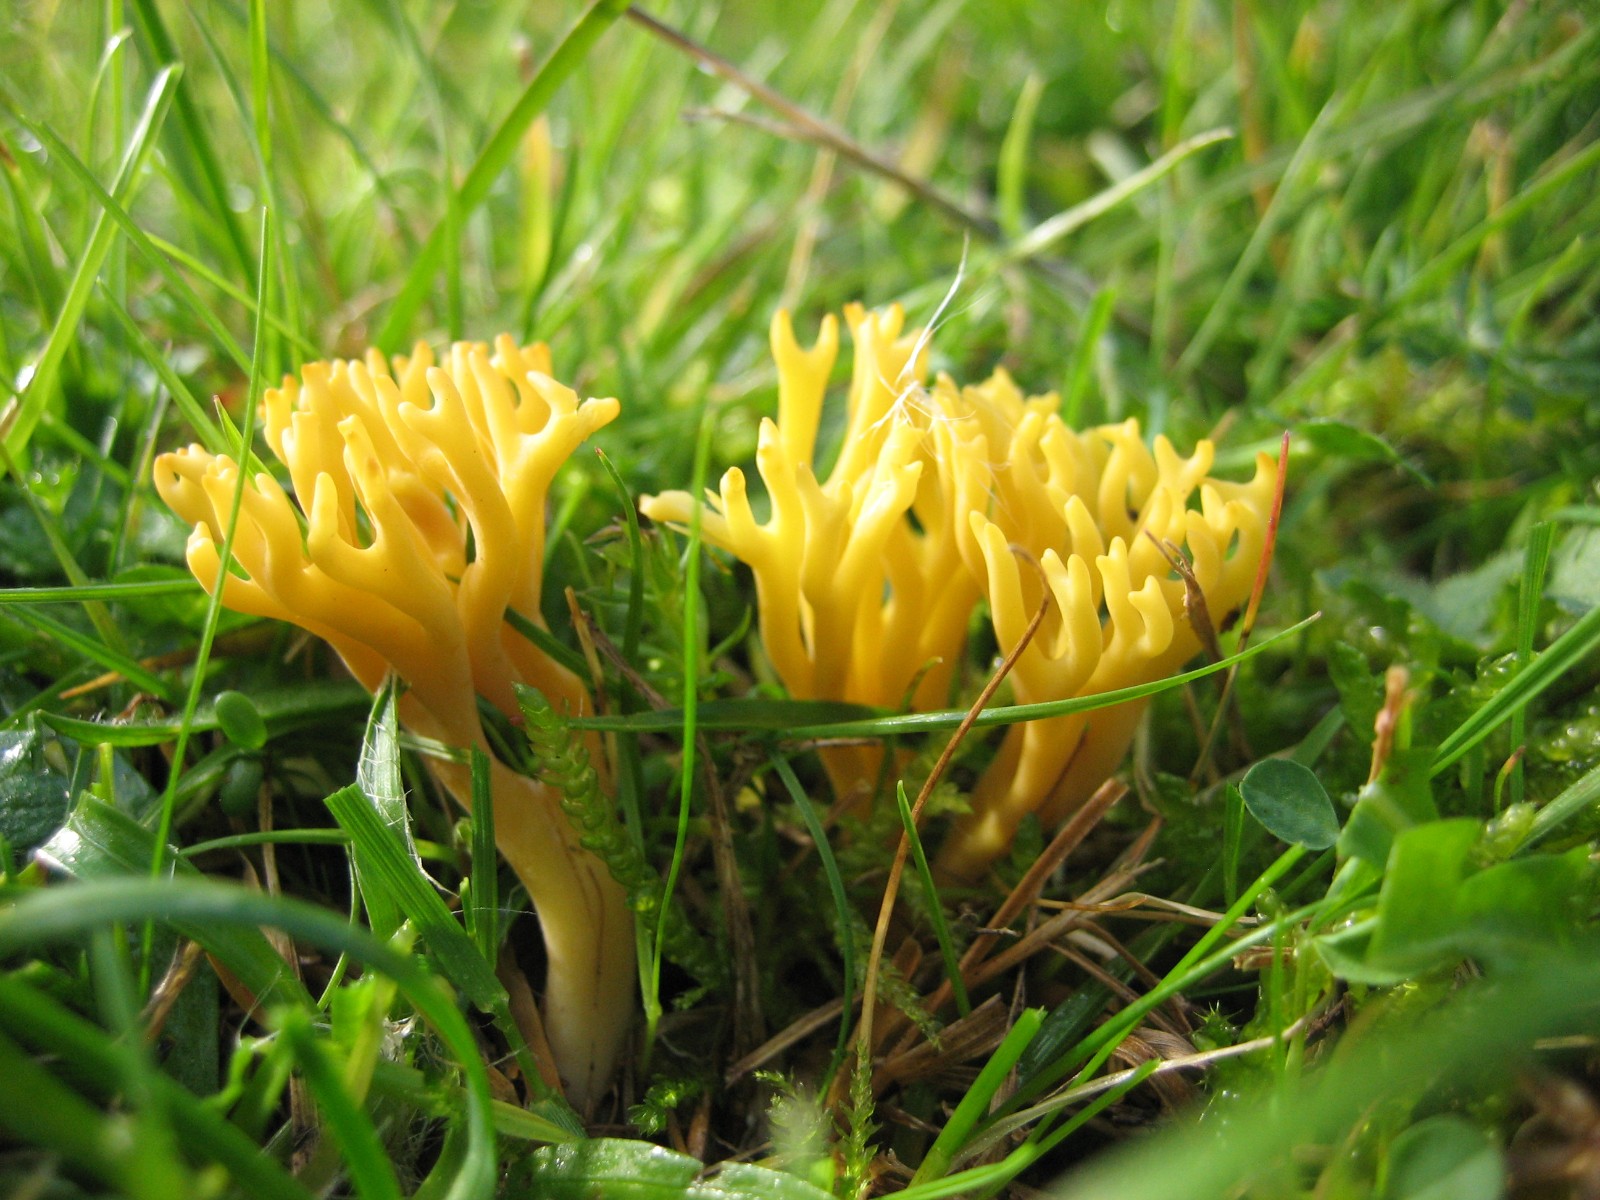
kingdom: Fungi
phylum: Basidiomycota
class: Agaricomycetes
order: Agaricales
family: Clavariaceae
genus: Clavulinopsis
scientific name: Clavulinopsis corniculata
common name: eng-køllesvamp
